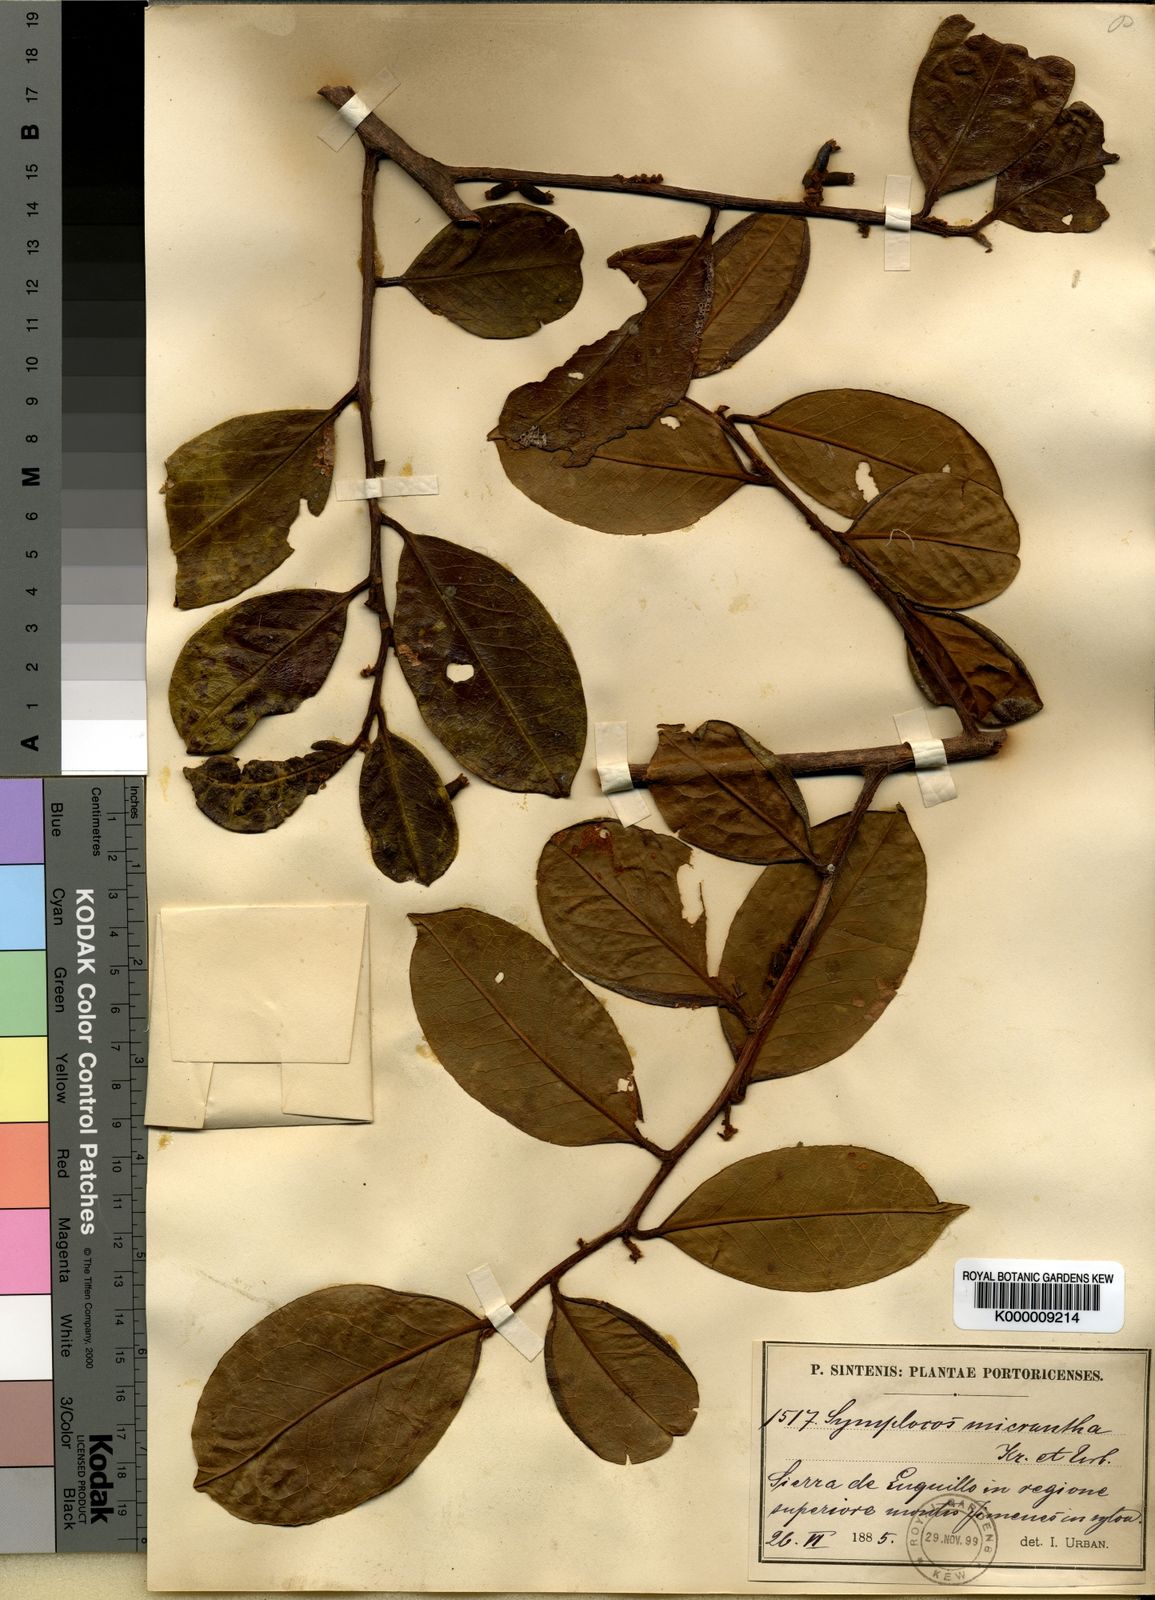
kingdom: Plantae
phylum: Tracheophyta
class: Magnoliopsida
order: Ericales
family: Symplocaceae
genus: Symplocos
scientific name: Symplocos micrantha
